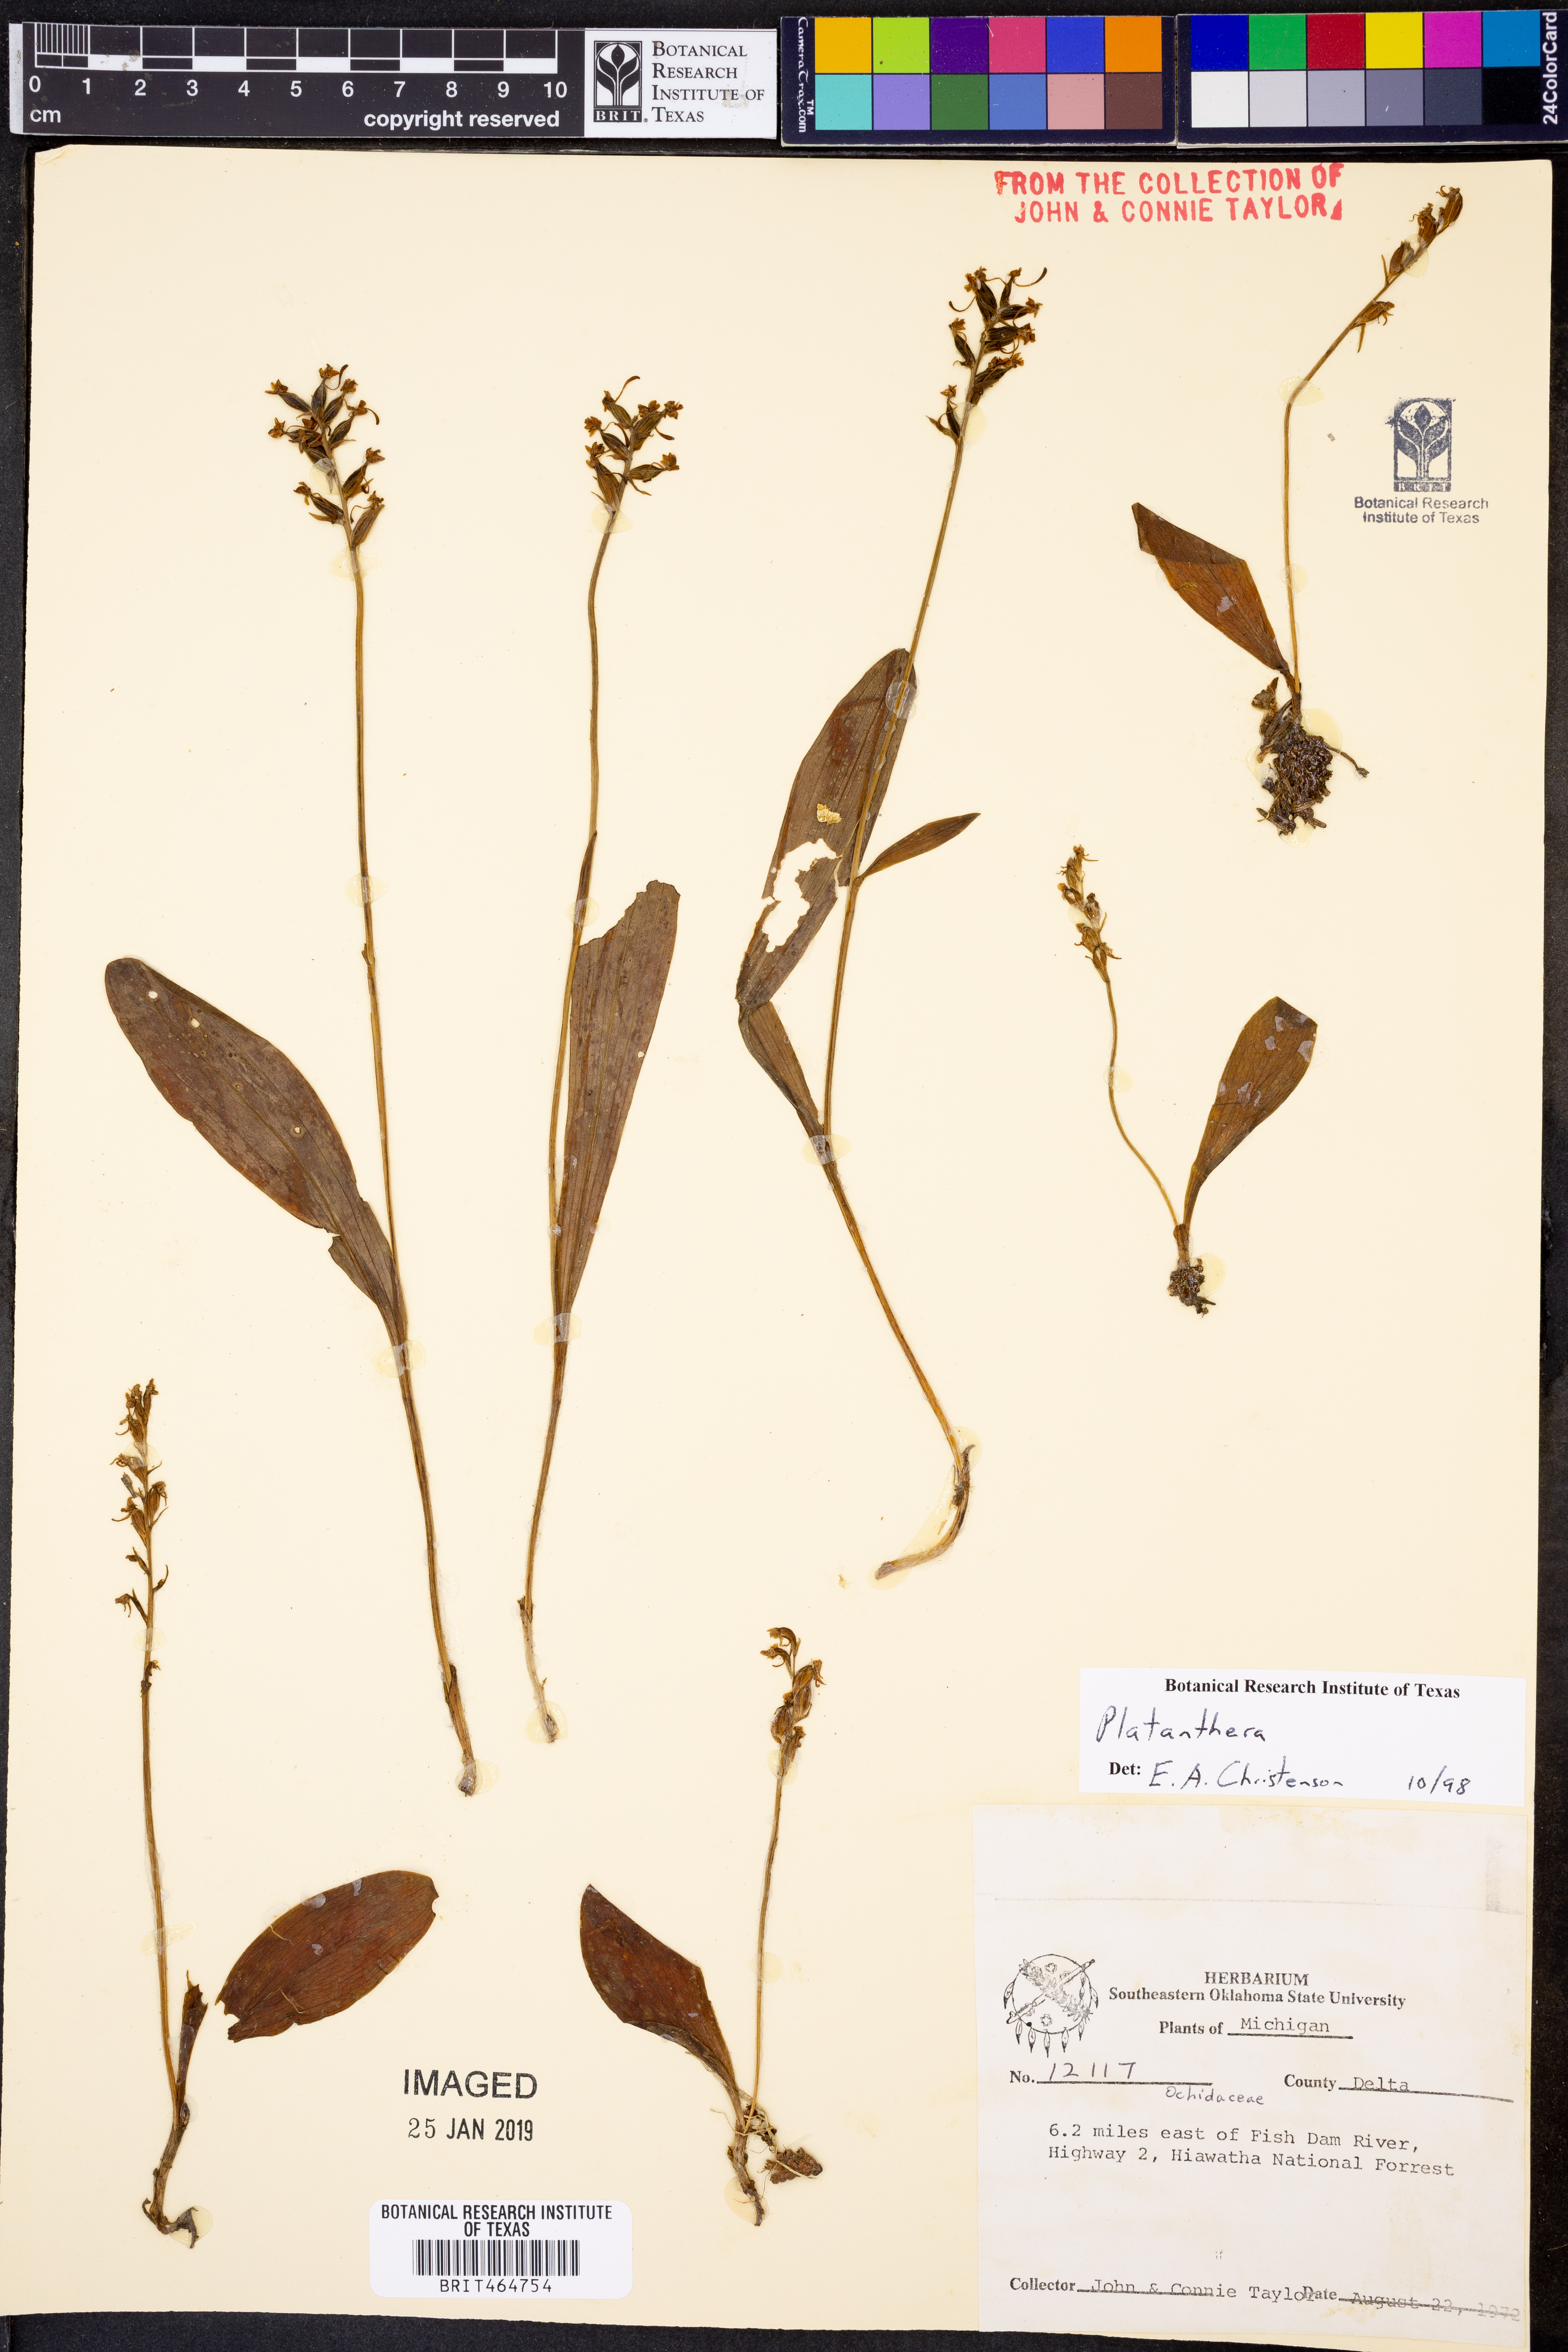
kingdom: Plantae
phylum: Tracheophyta
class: Liliopsida
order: Asparagales
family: Orchidaceae
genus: Platanthera
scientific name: Platanthera
